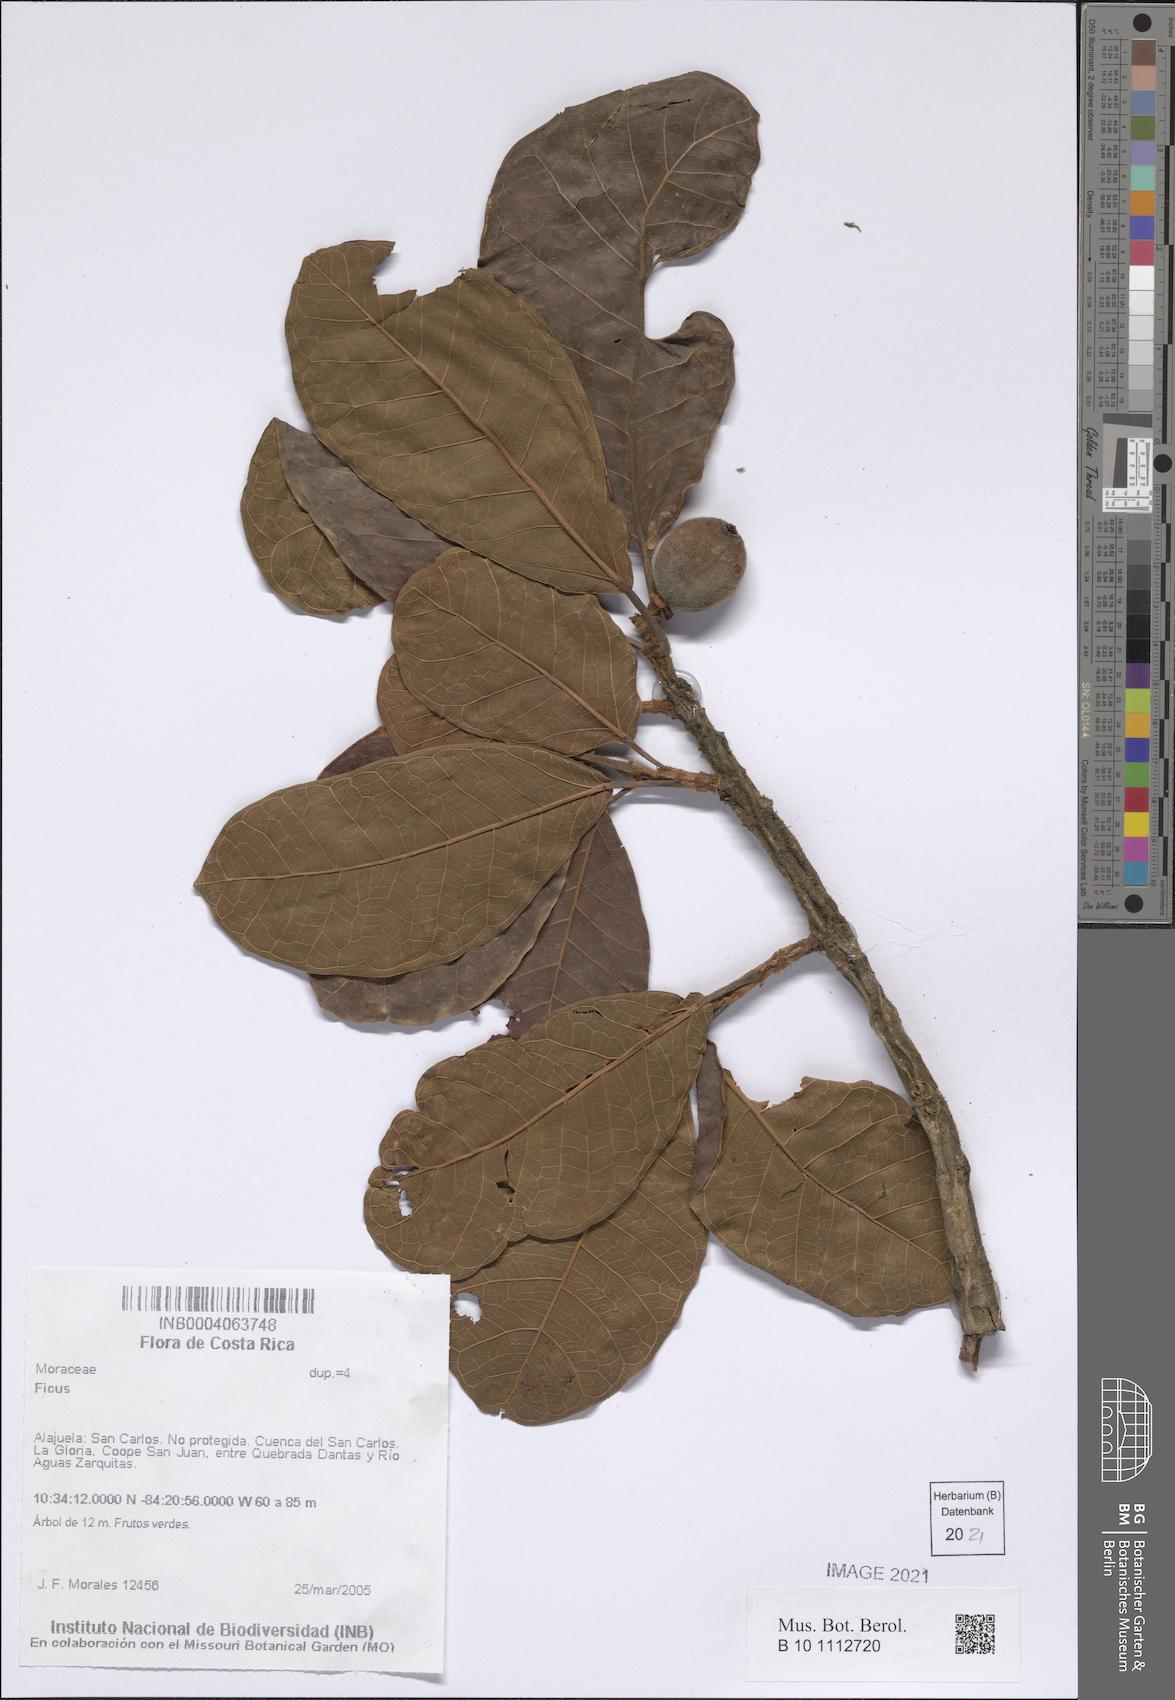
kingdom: Plantae
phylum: Tracheophyta
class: Magnoliopsida
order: Rosales
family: Moraceae
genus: Ficus
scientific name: Ficus
